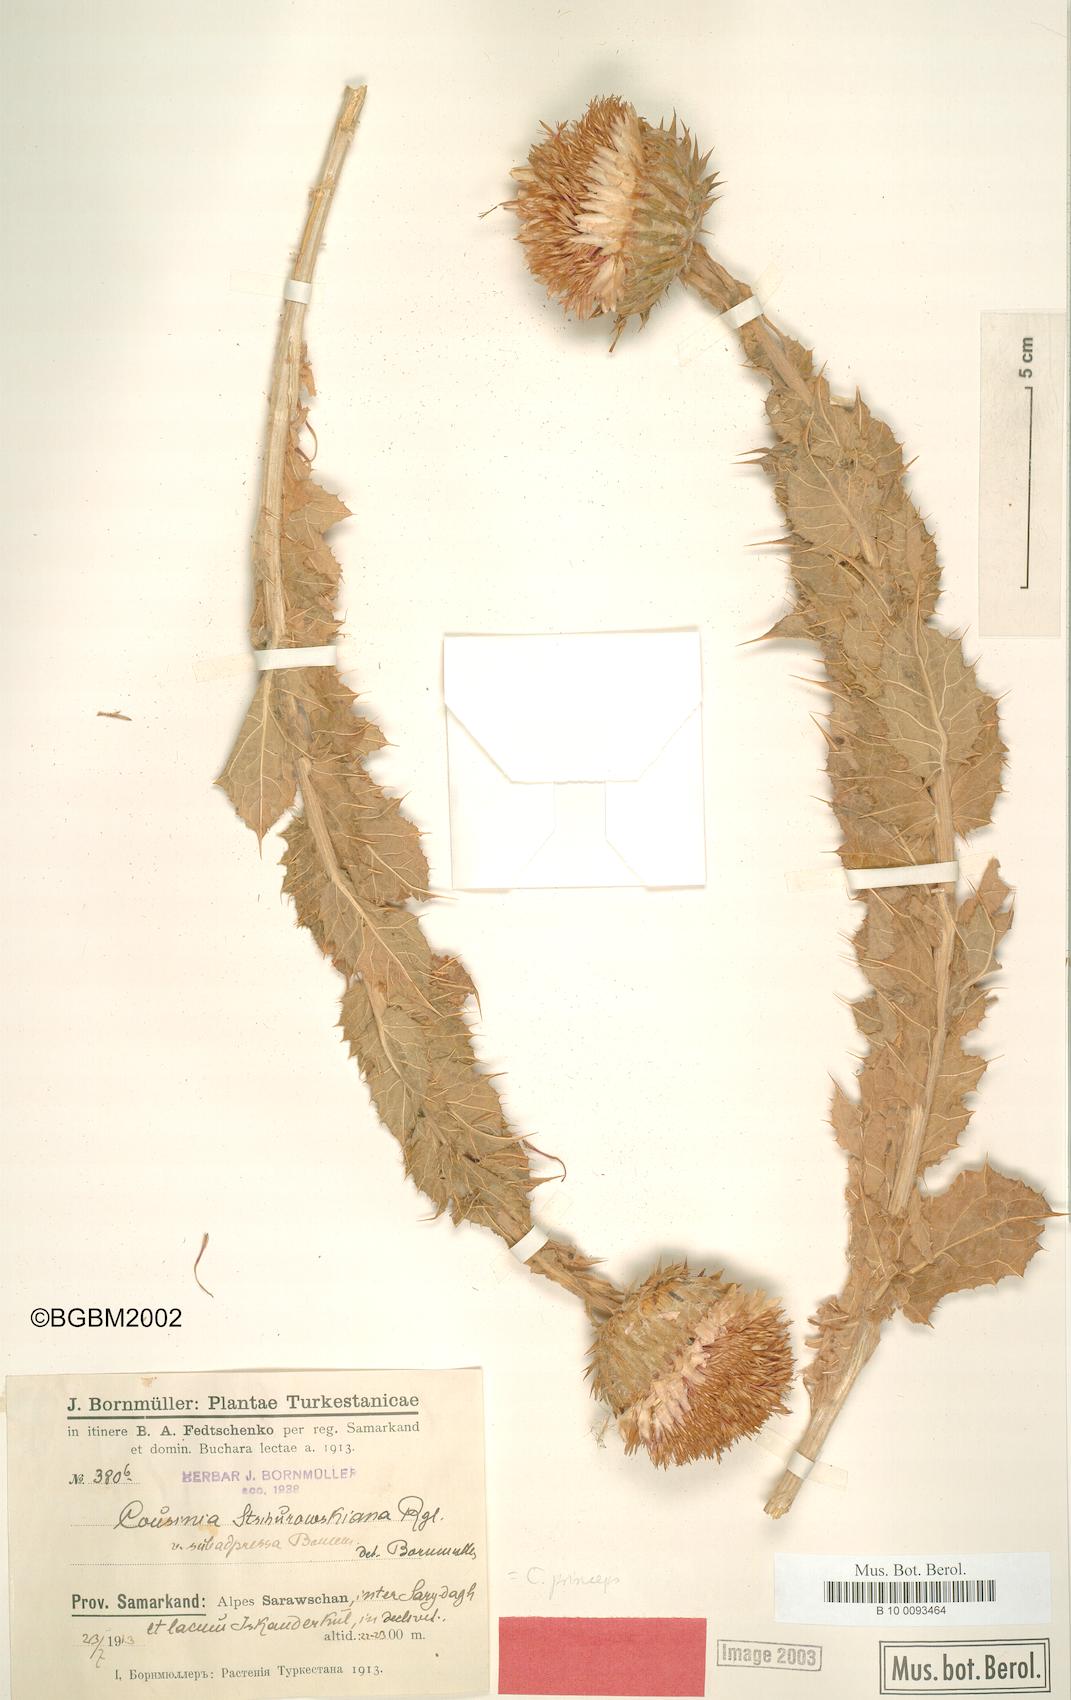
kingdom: Plantae
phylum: Tracheophyta
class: Magnoliopsida
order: Asterales
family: Asteraceae
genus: Cousinia
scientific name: Cousinia princeps
